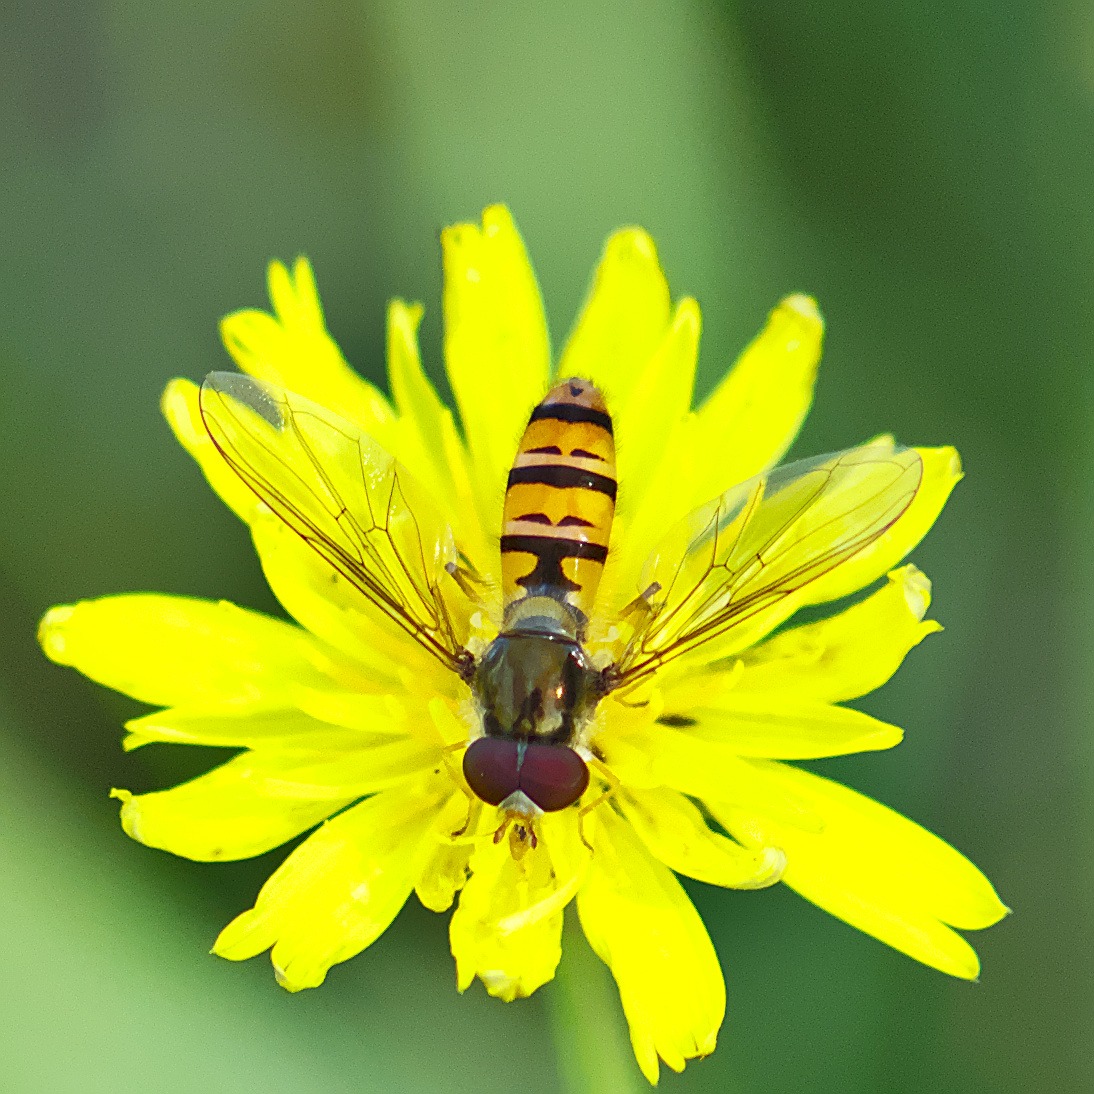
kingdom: Animalia
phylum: Arthropoda
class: Insecta
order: Diptera
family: Syrphidae
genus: Episyrphus
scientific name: Episyrphus balteatus
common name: Dobbeltbåndet svirreflue
